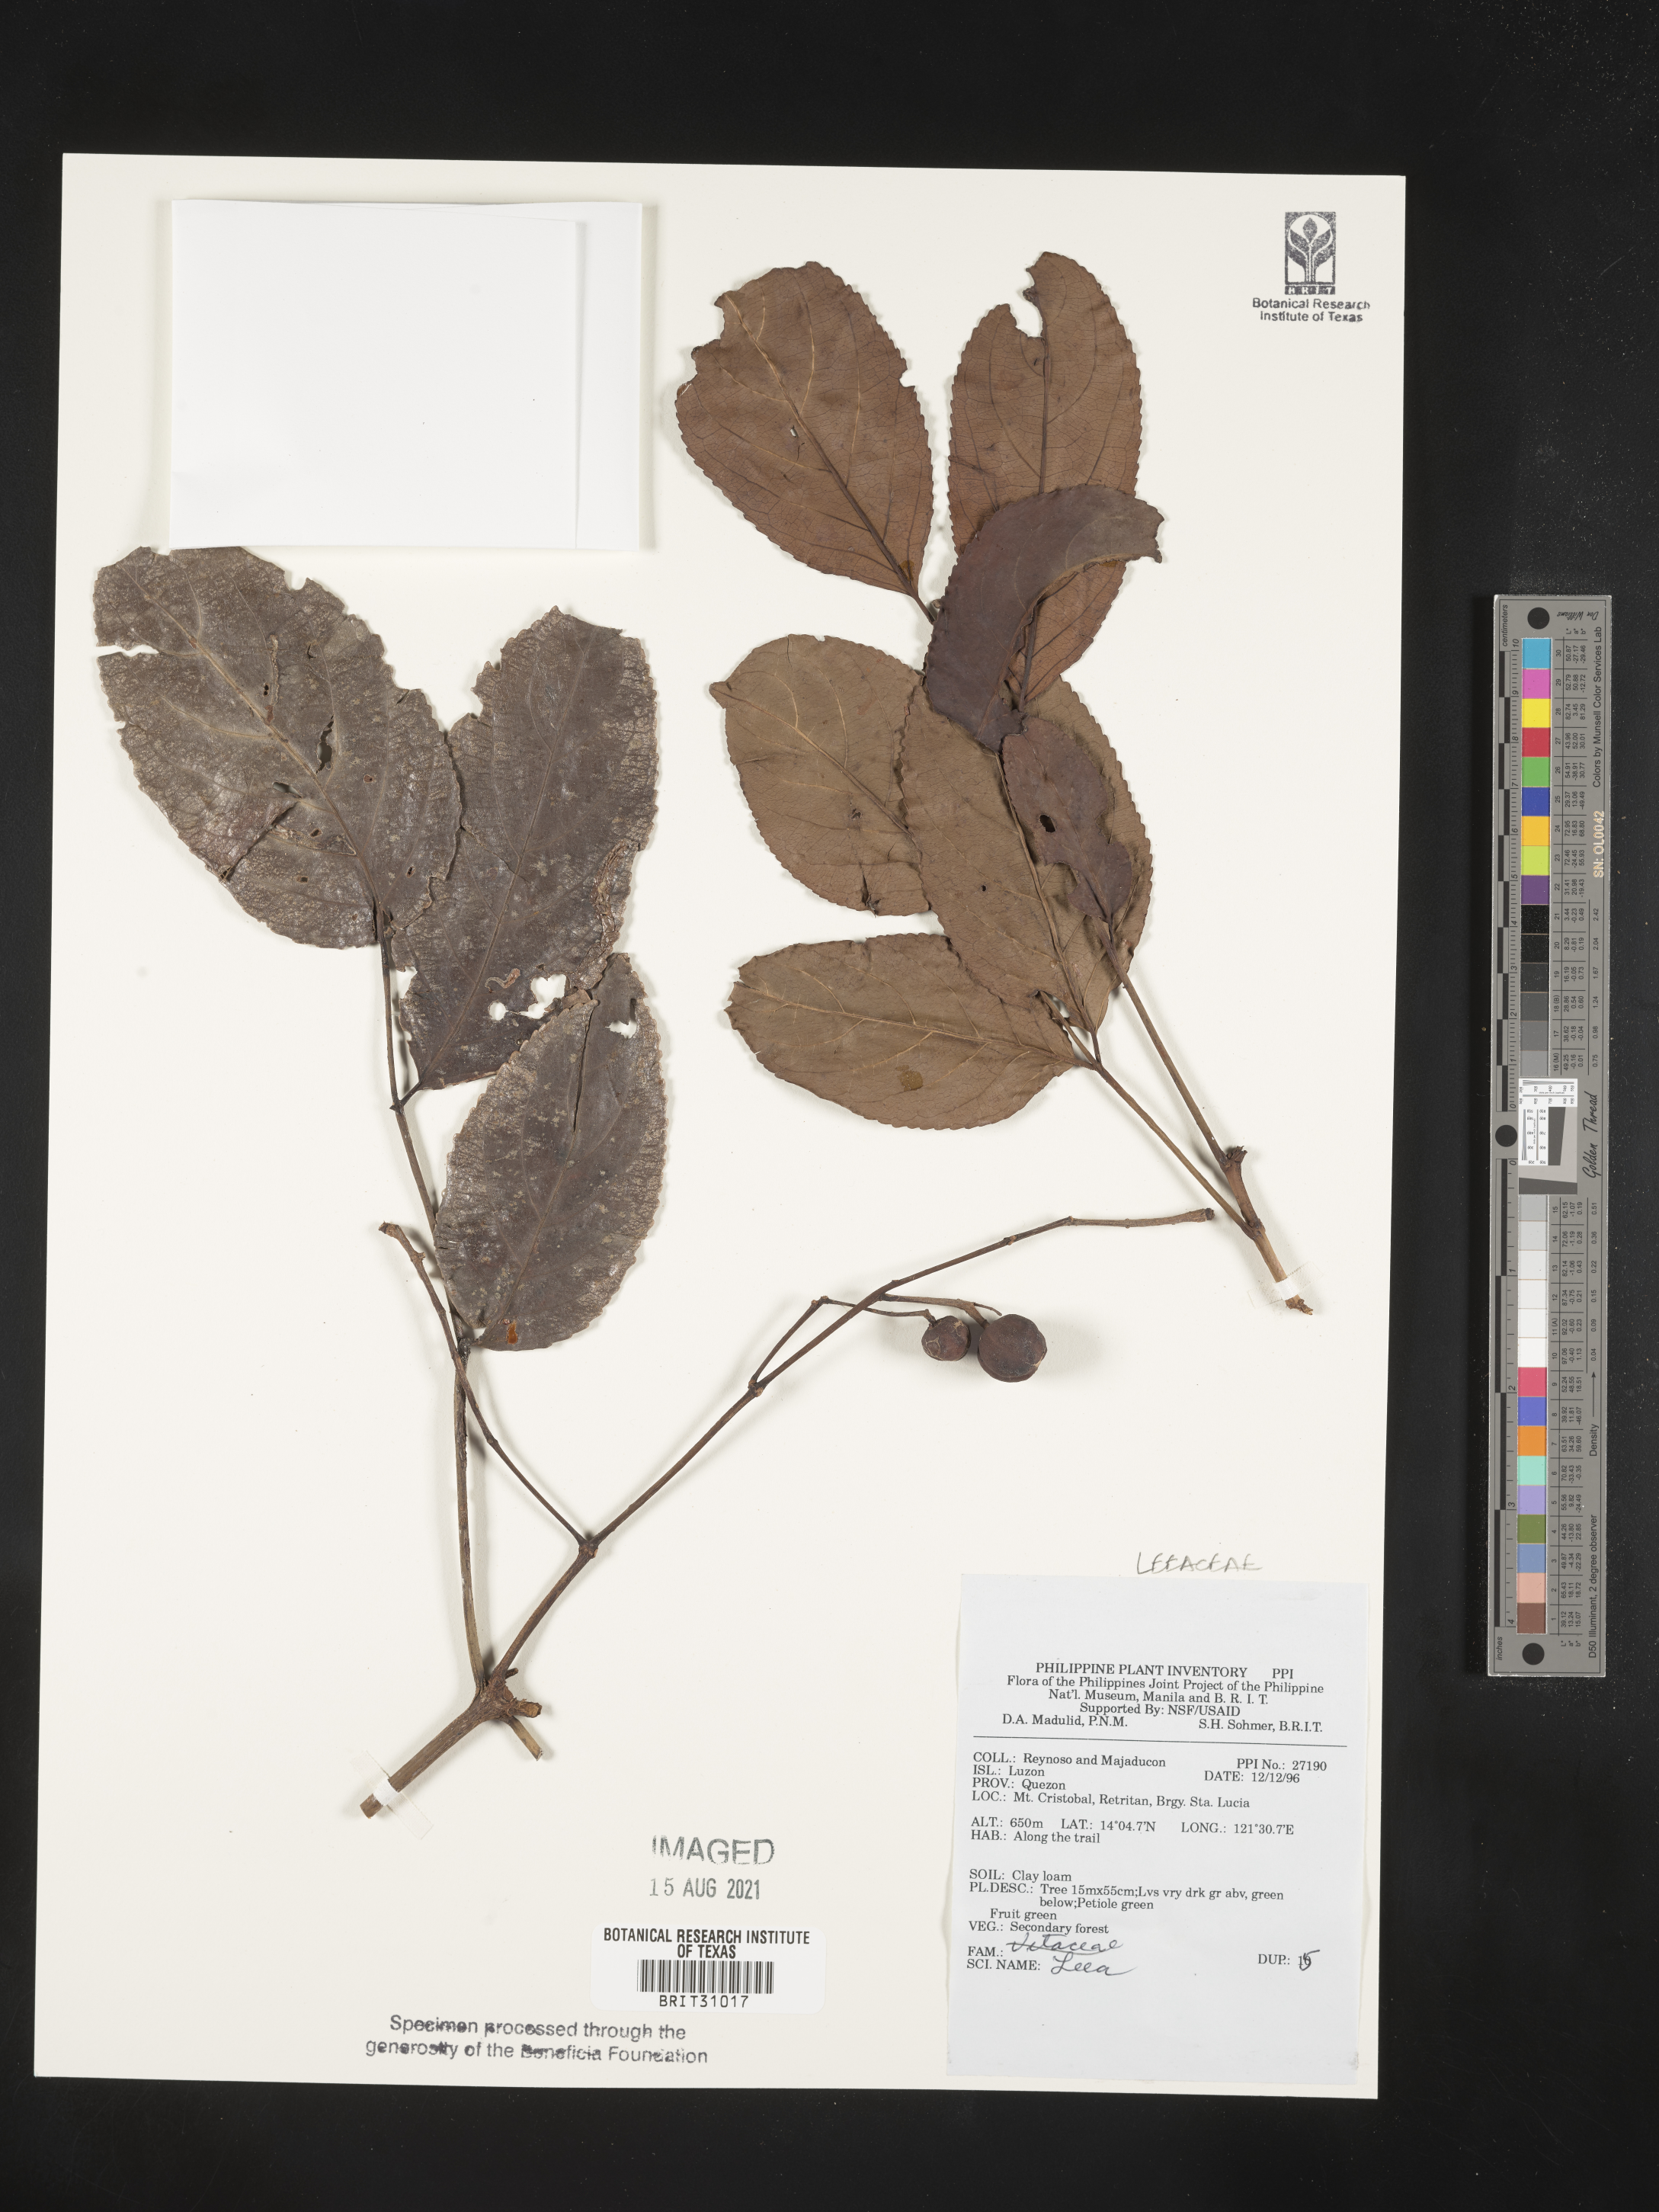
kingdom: Plantae
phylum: Tracheophyta
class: Magnoliopsida
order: Vitales
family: Vitaceae
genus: Leea
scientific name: Leea
